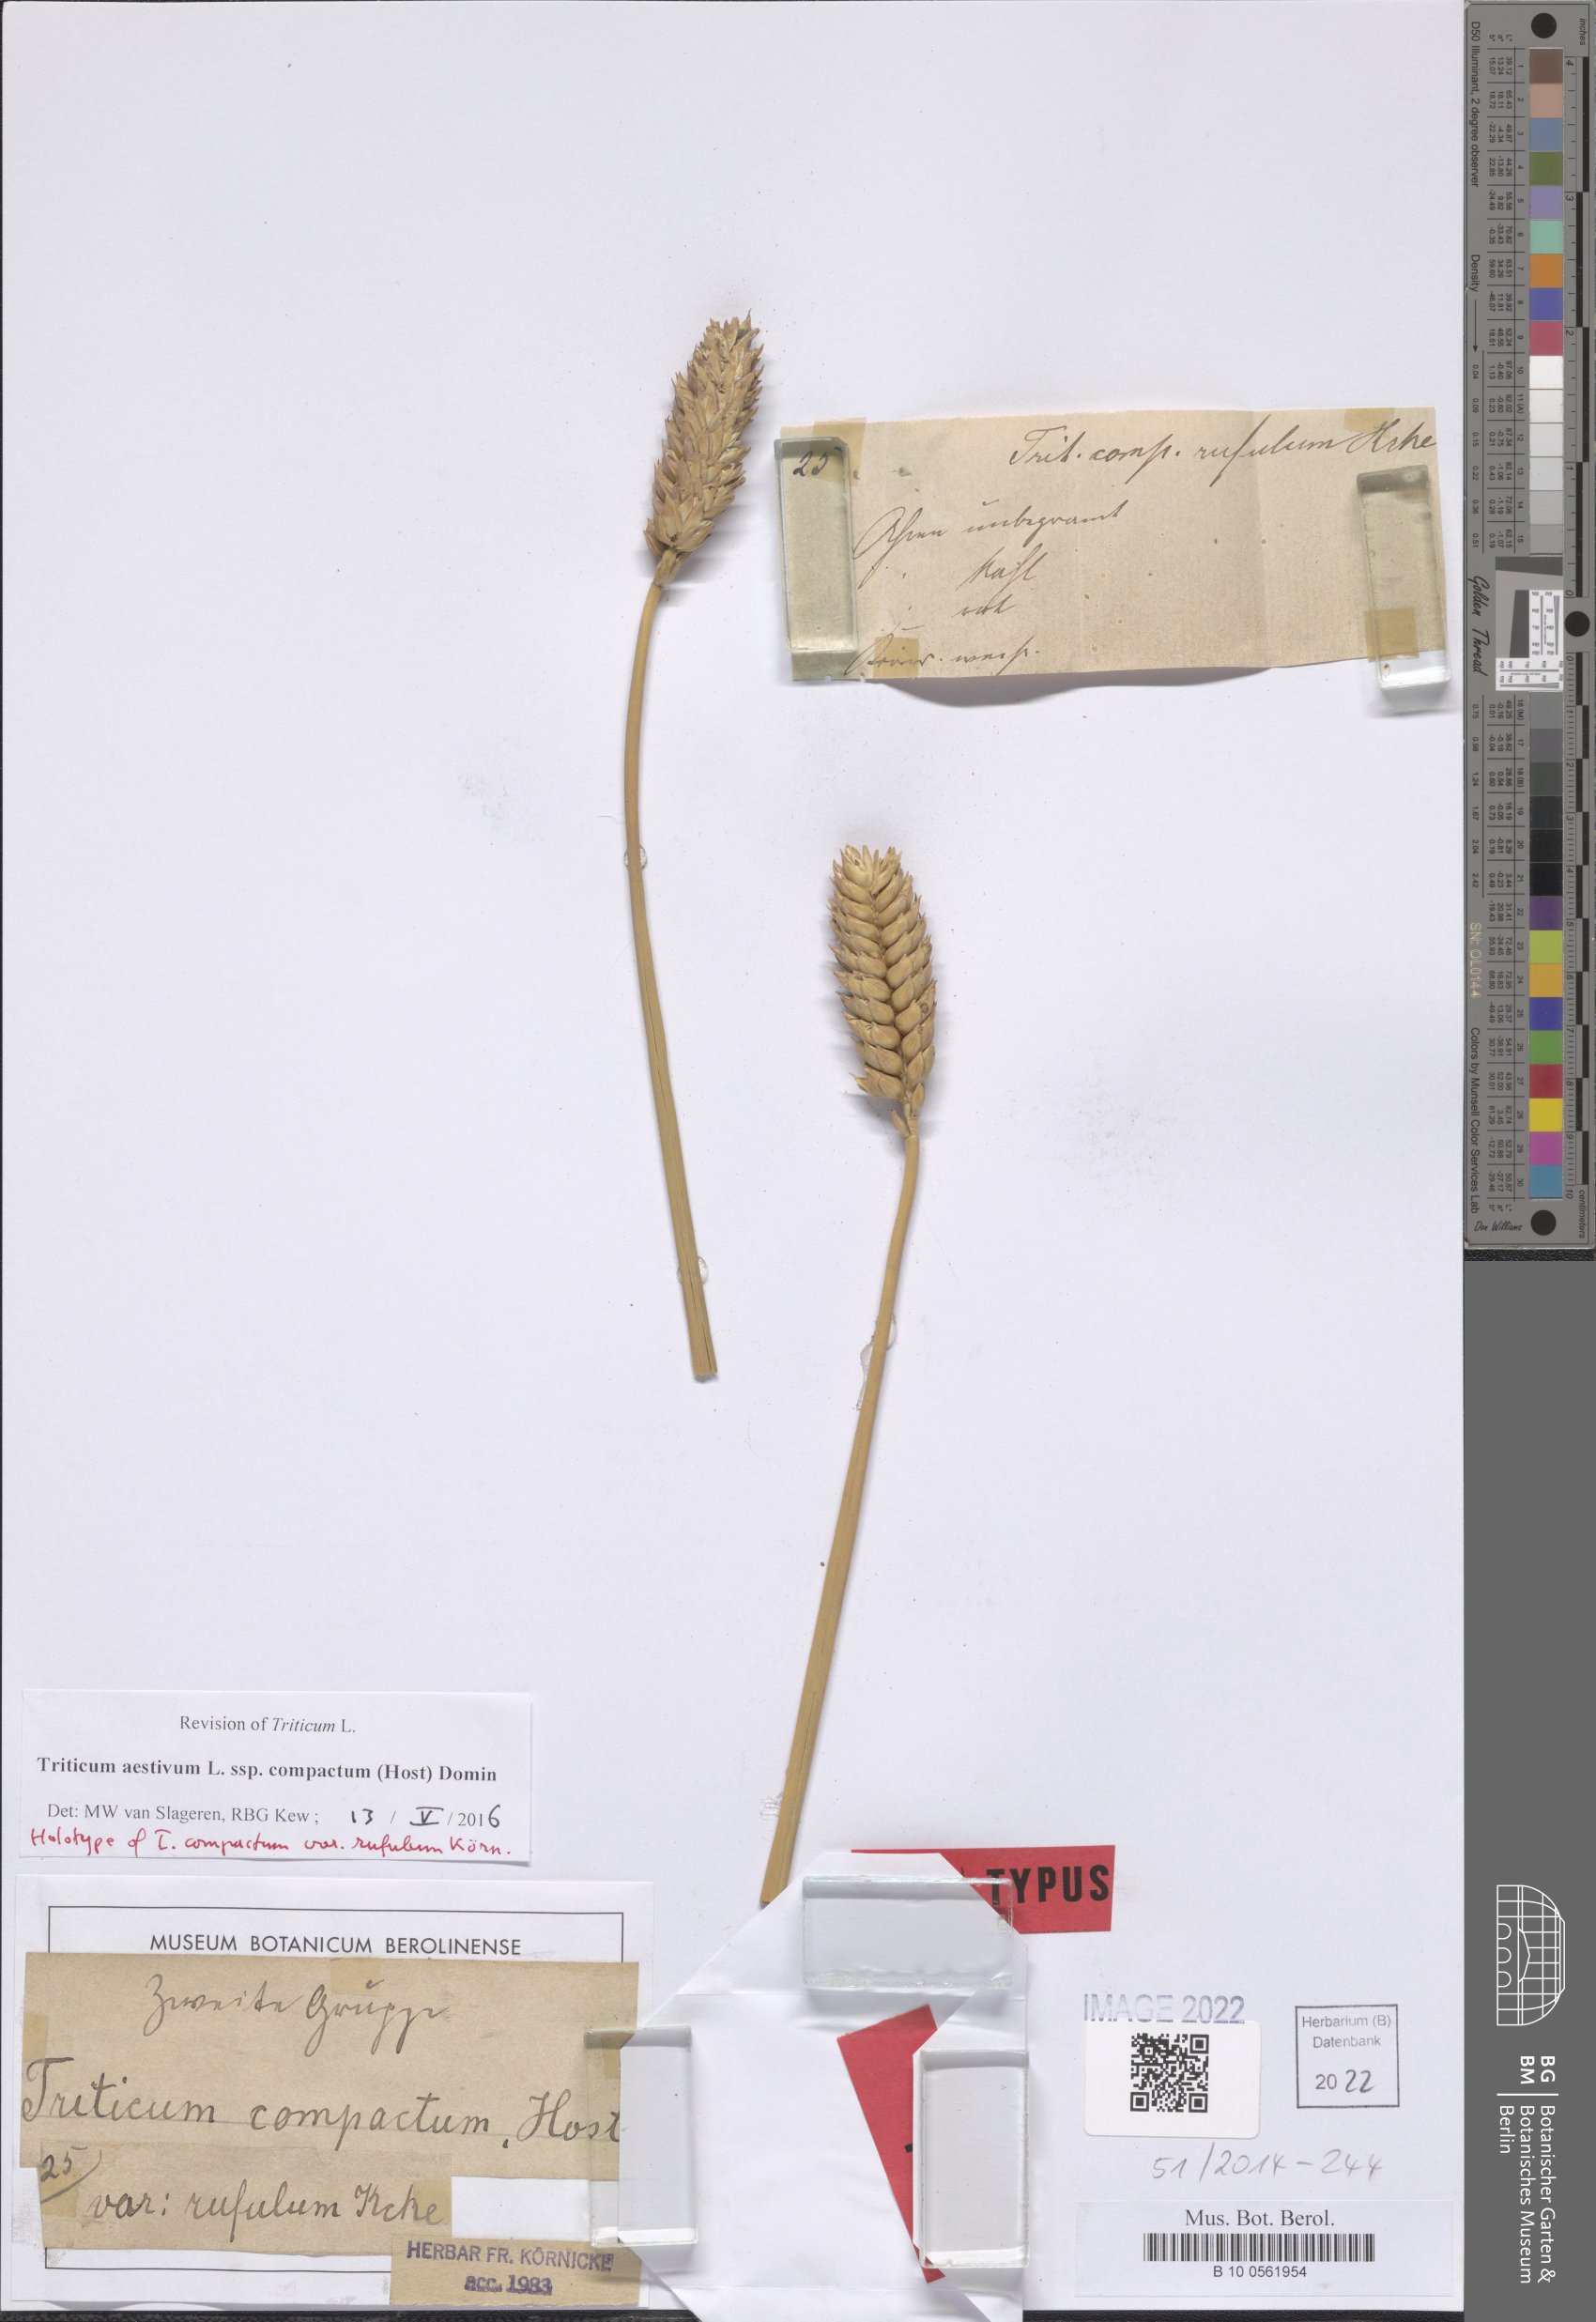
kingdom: Plantae
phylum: Tracheophyta
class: Liliopsida
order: Poales
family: Poaceae
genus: Triticum
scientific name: Triticum aestivum
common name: Common wheat
